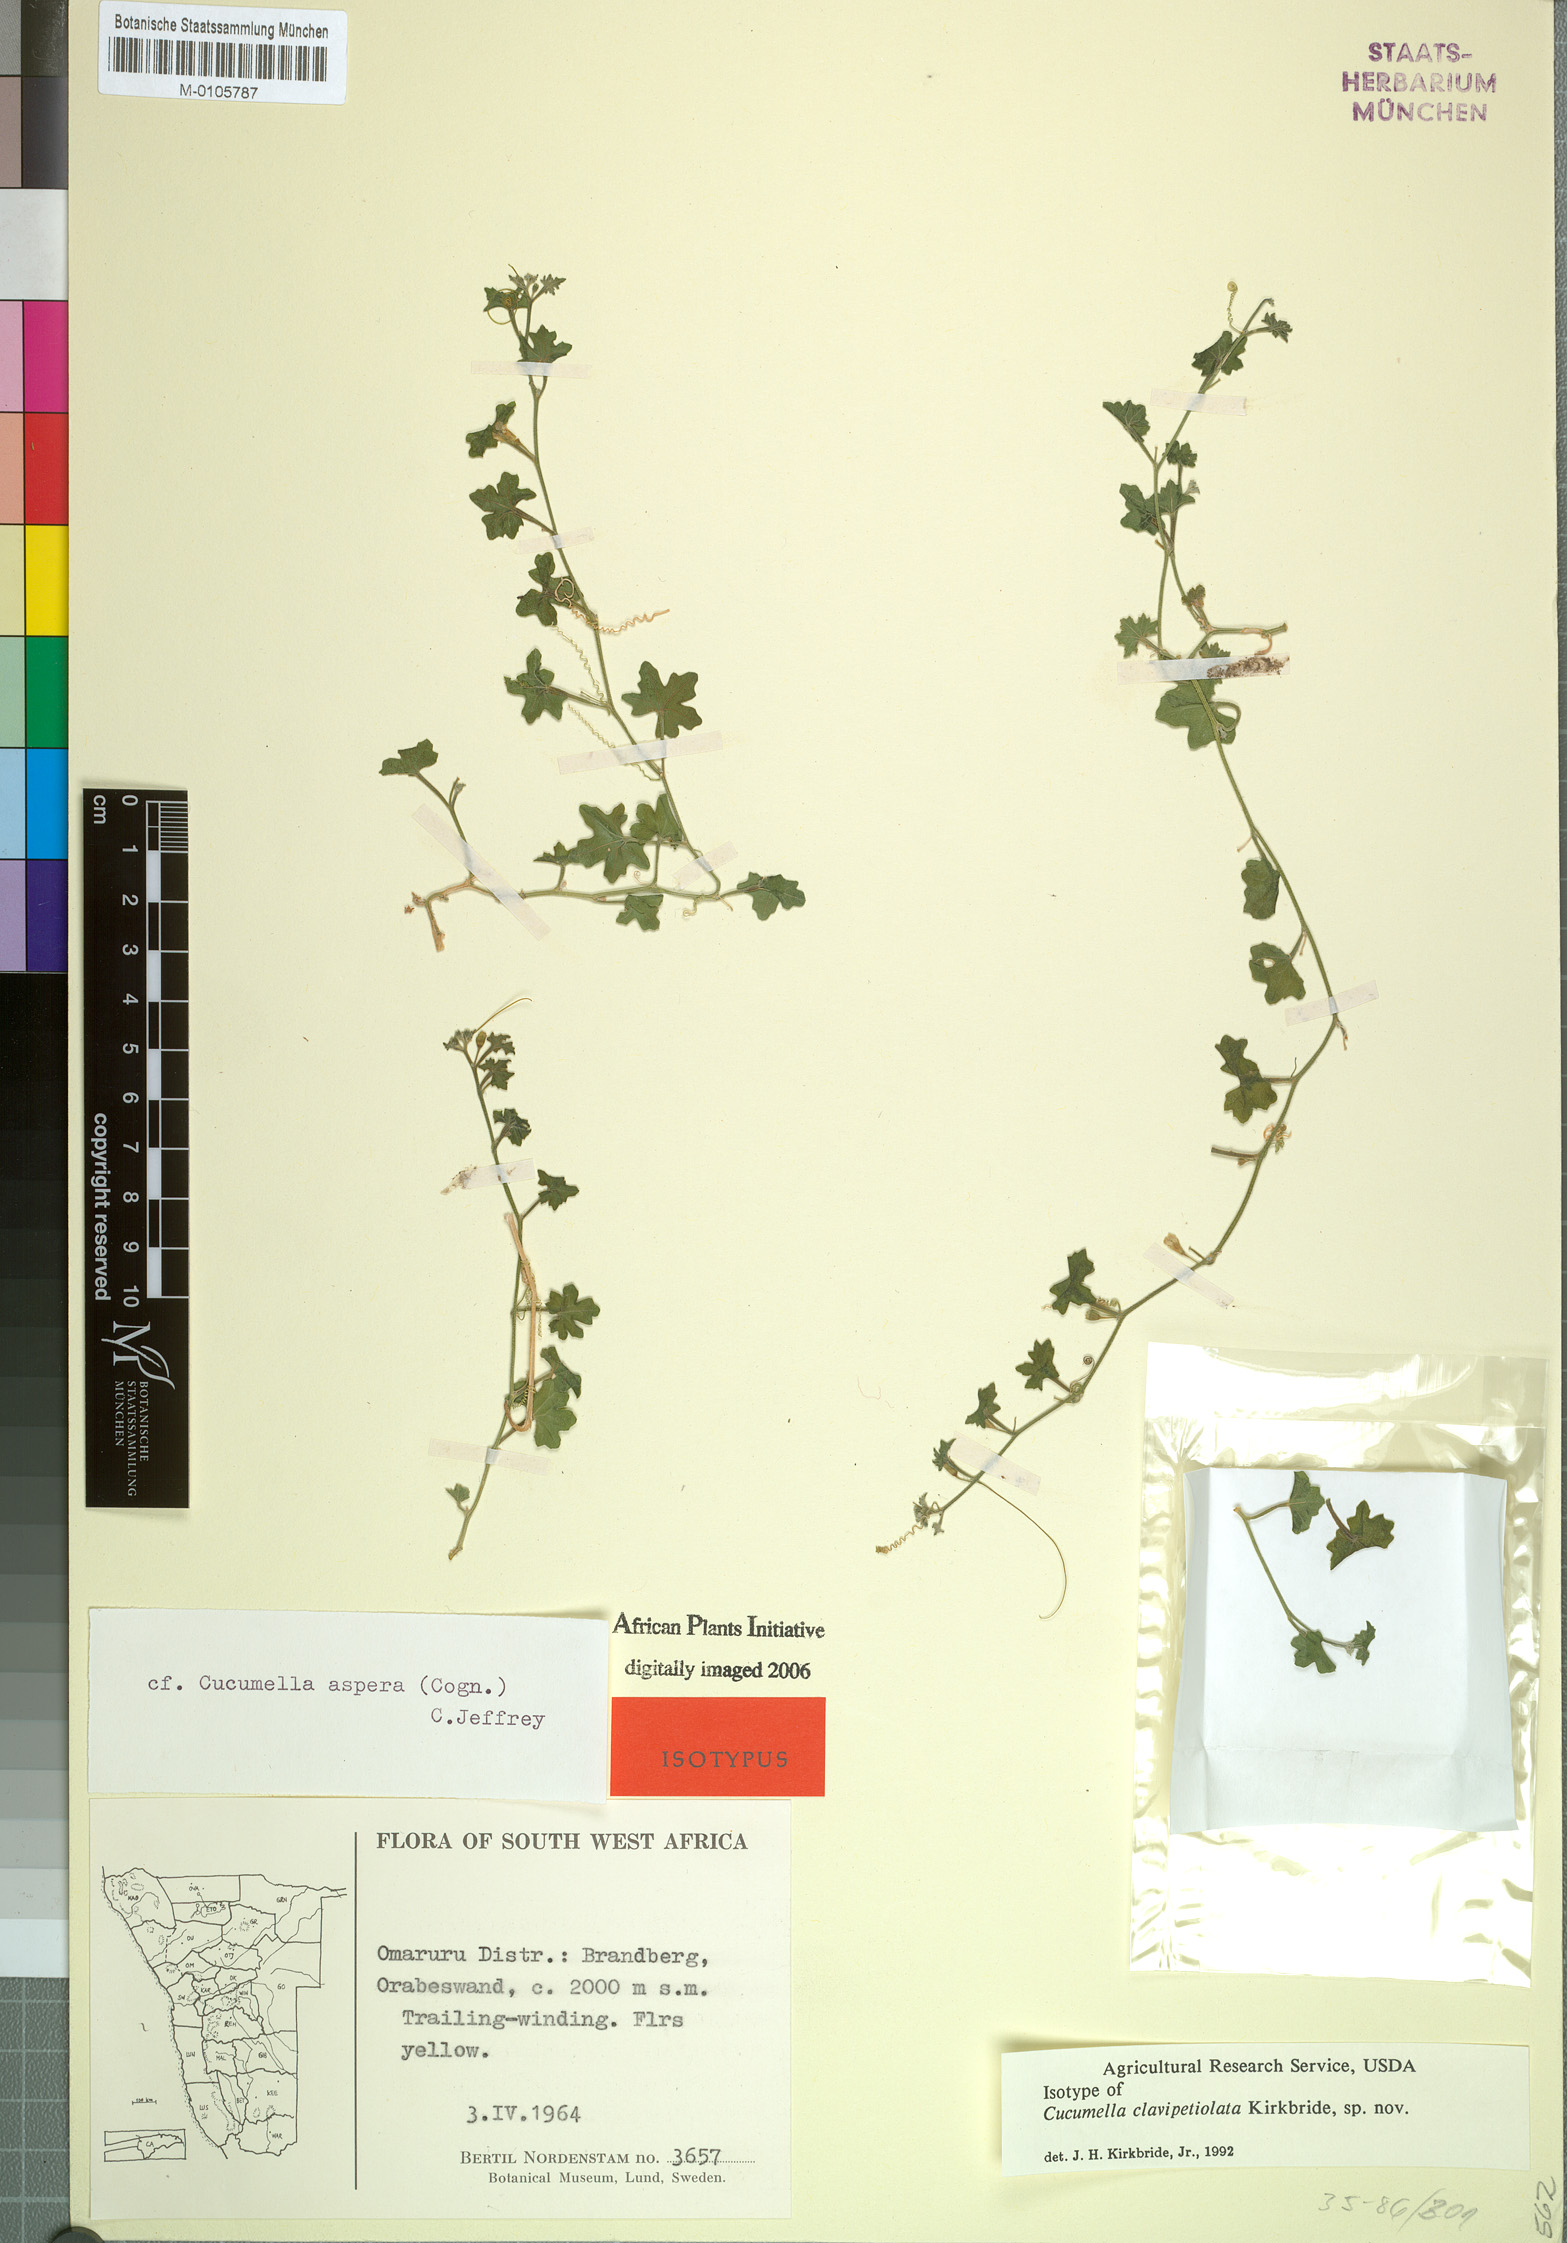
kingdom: Plantae
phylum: Tracheophyta
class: Magnoliopsida
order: Cucurbitales
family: Cucurbitaceae
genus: Cucumis
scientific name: Cucumis asper
